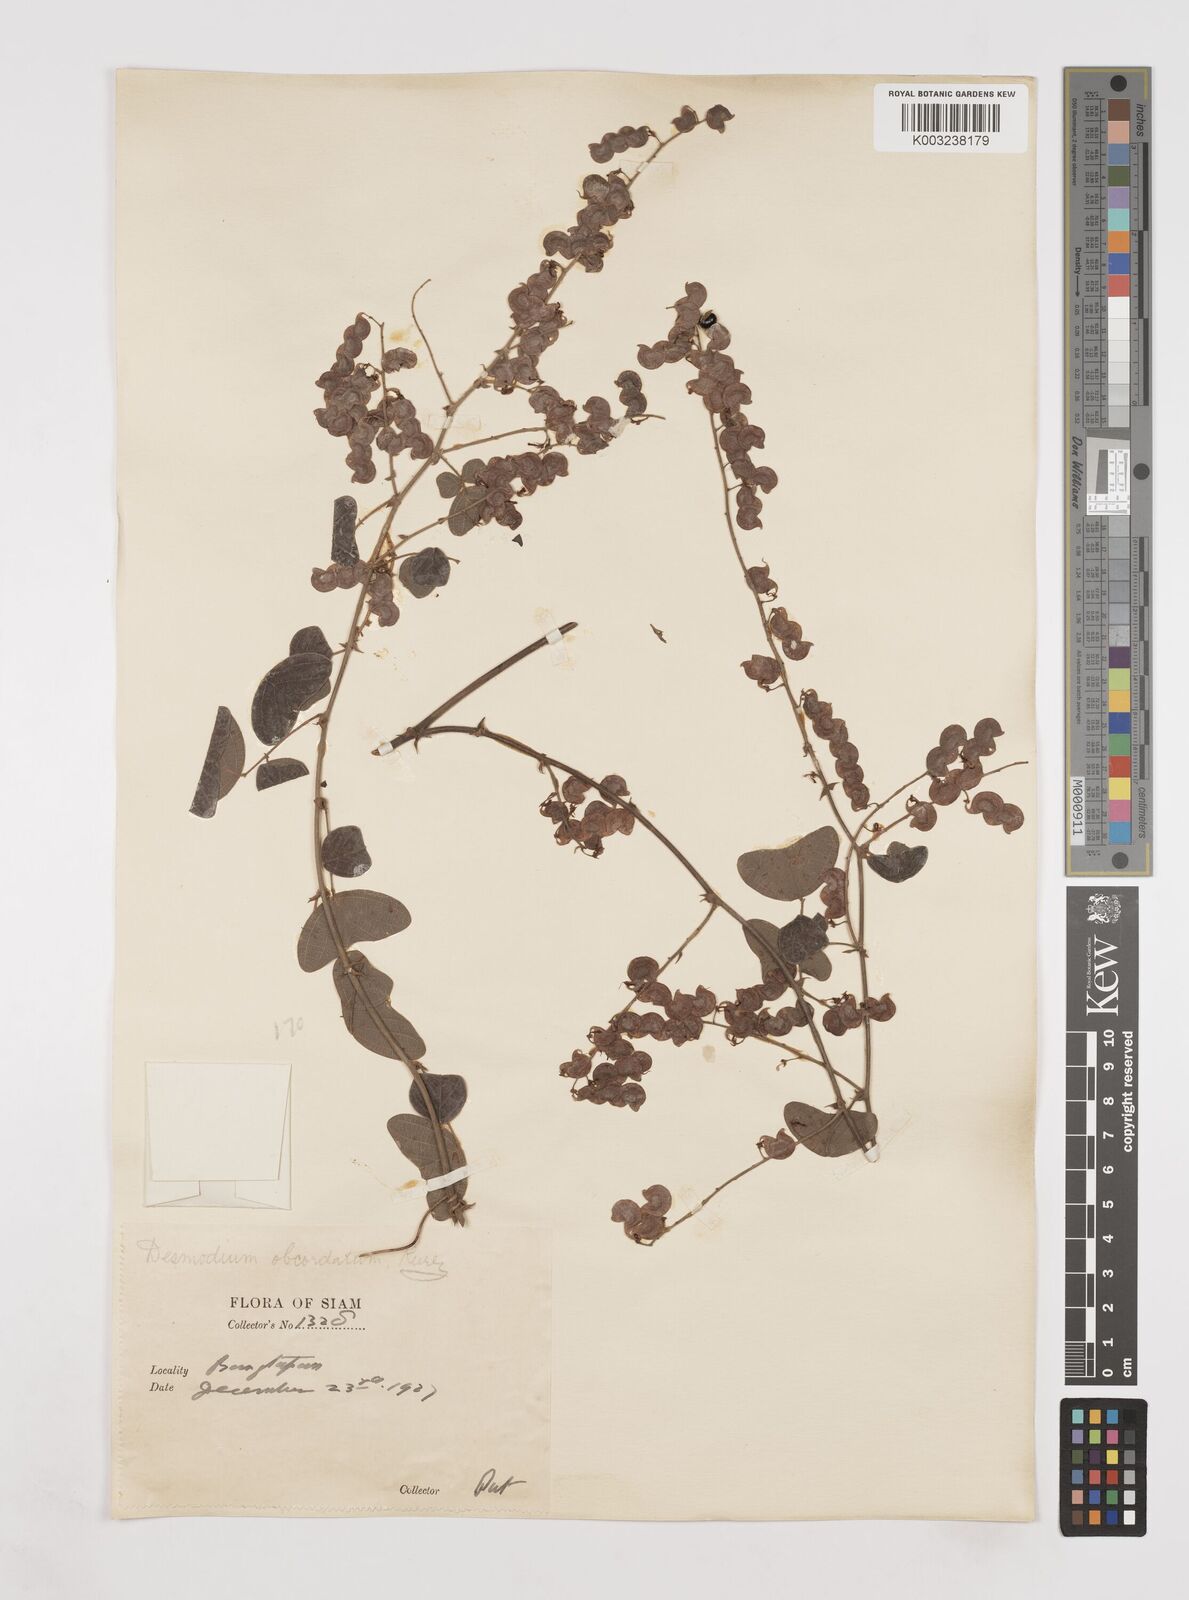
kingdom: Plantae
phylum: Tracheophyta
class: Magnoliopsida
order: Fabales
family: Fabaceae
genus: Hegnera
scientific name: Hegnera obcordata
